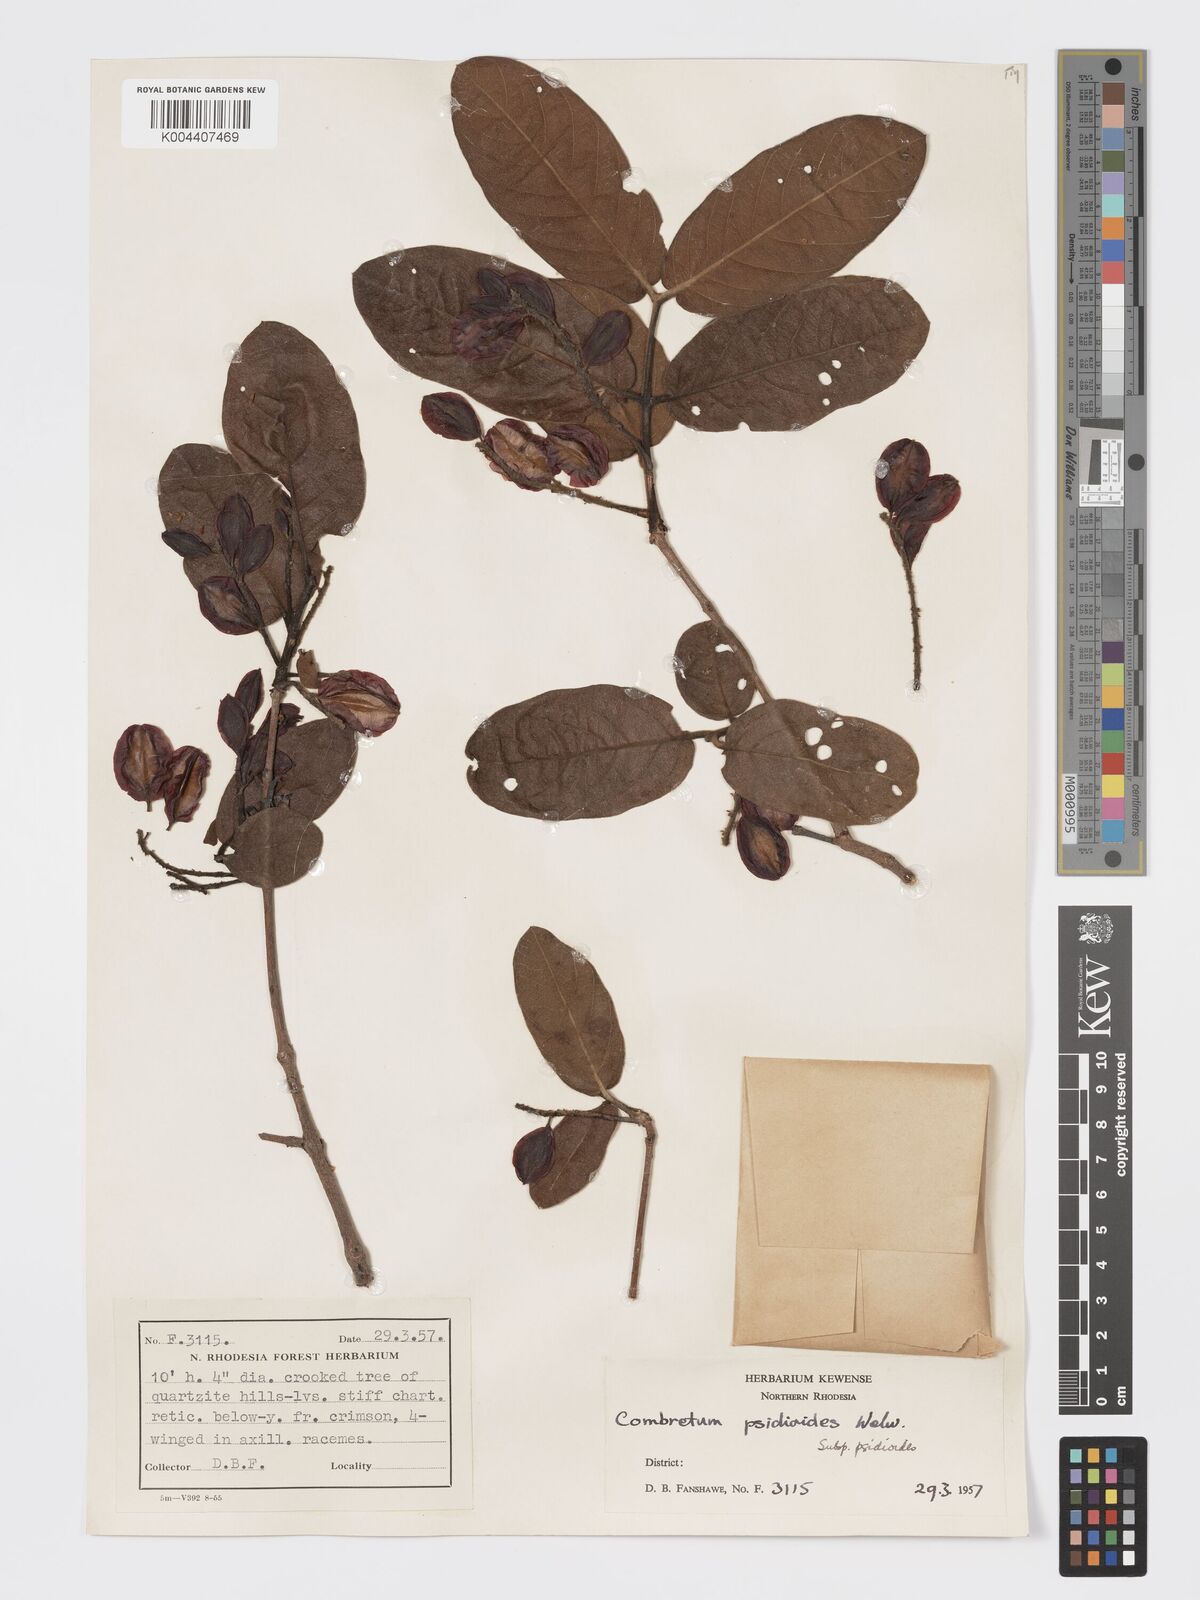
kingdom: Plantae
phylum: Tracheophyta
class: Magnoliopsida
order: Myrtales
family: Combretaceae
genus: Combretum
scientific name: Combretum psidioides
